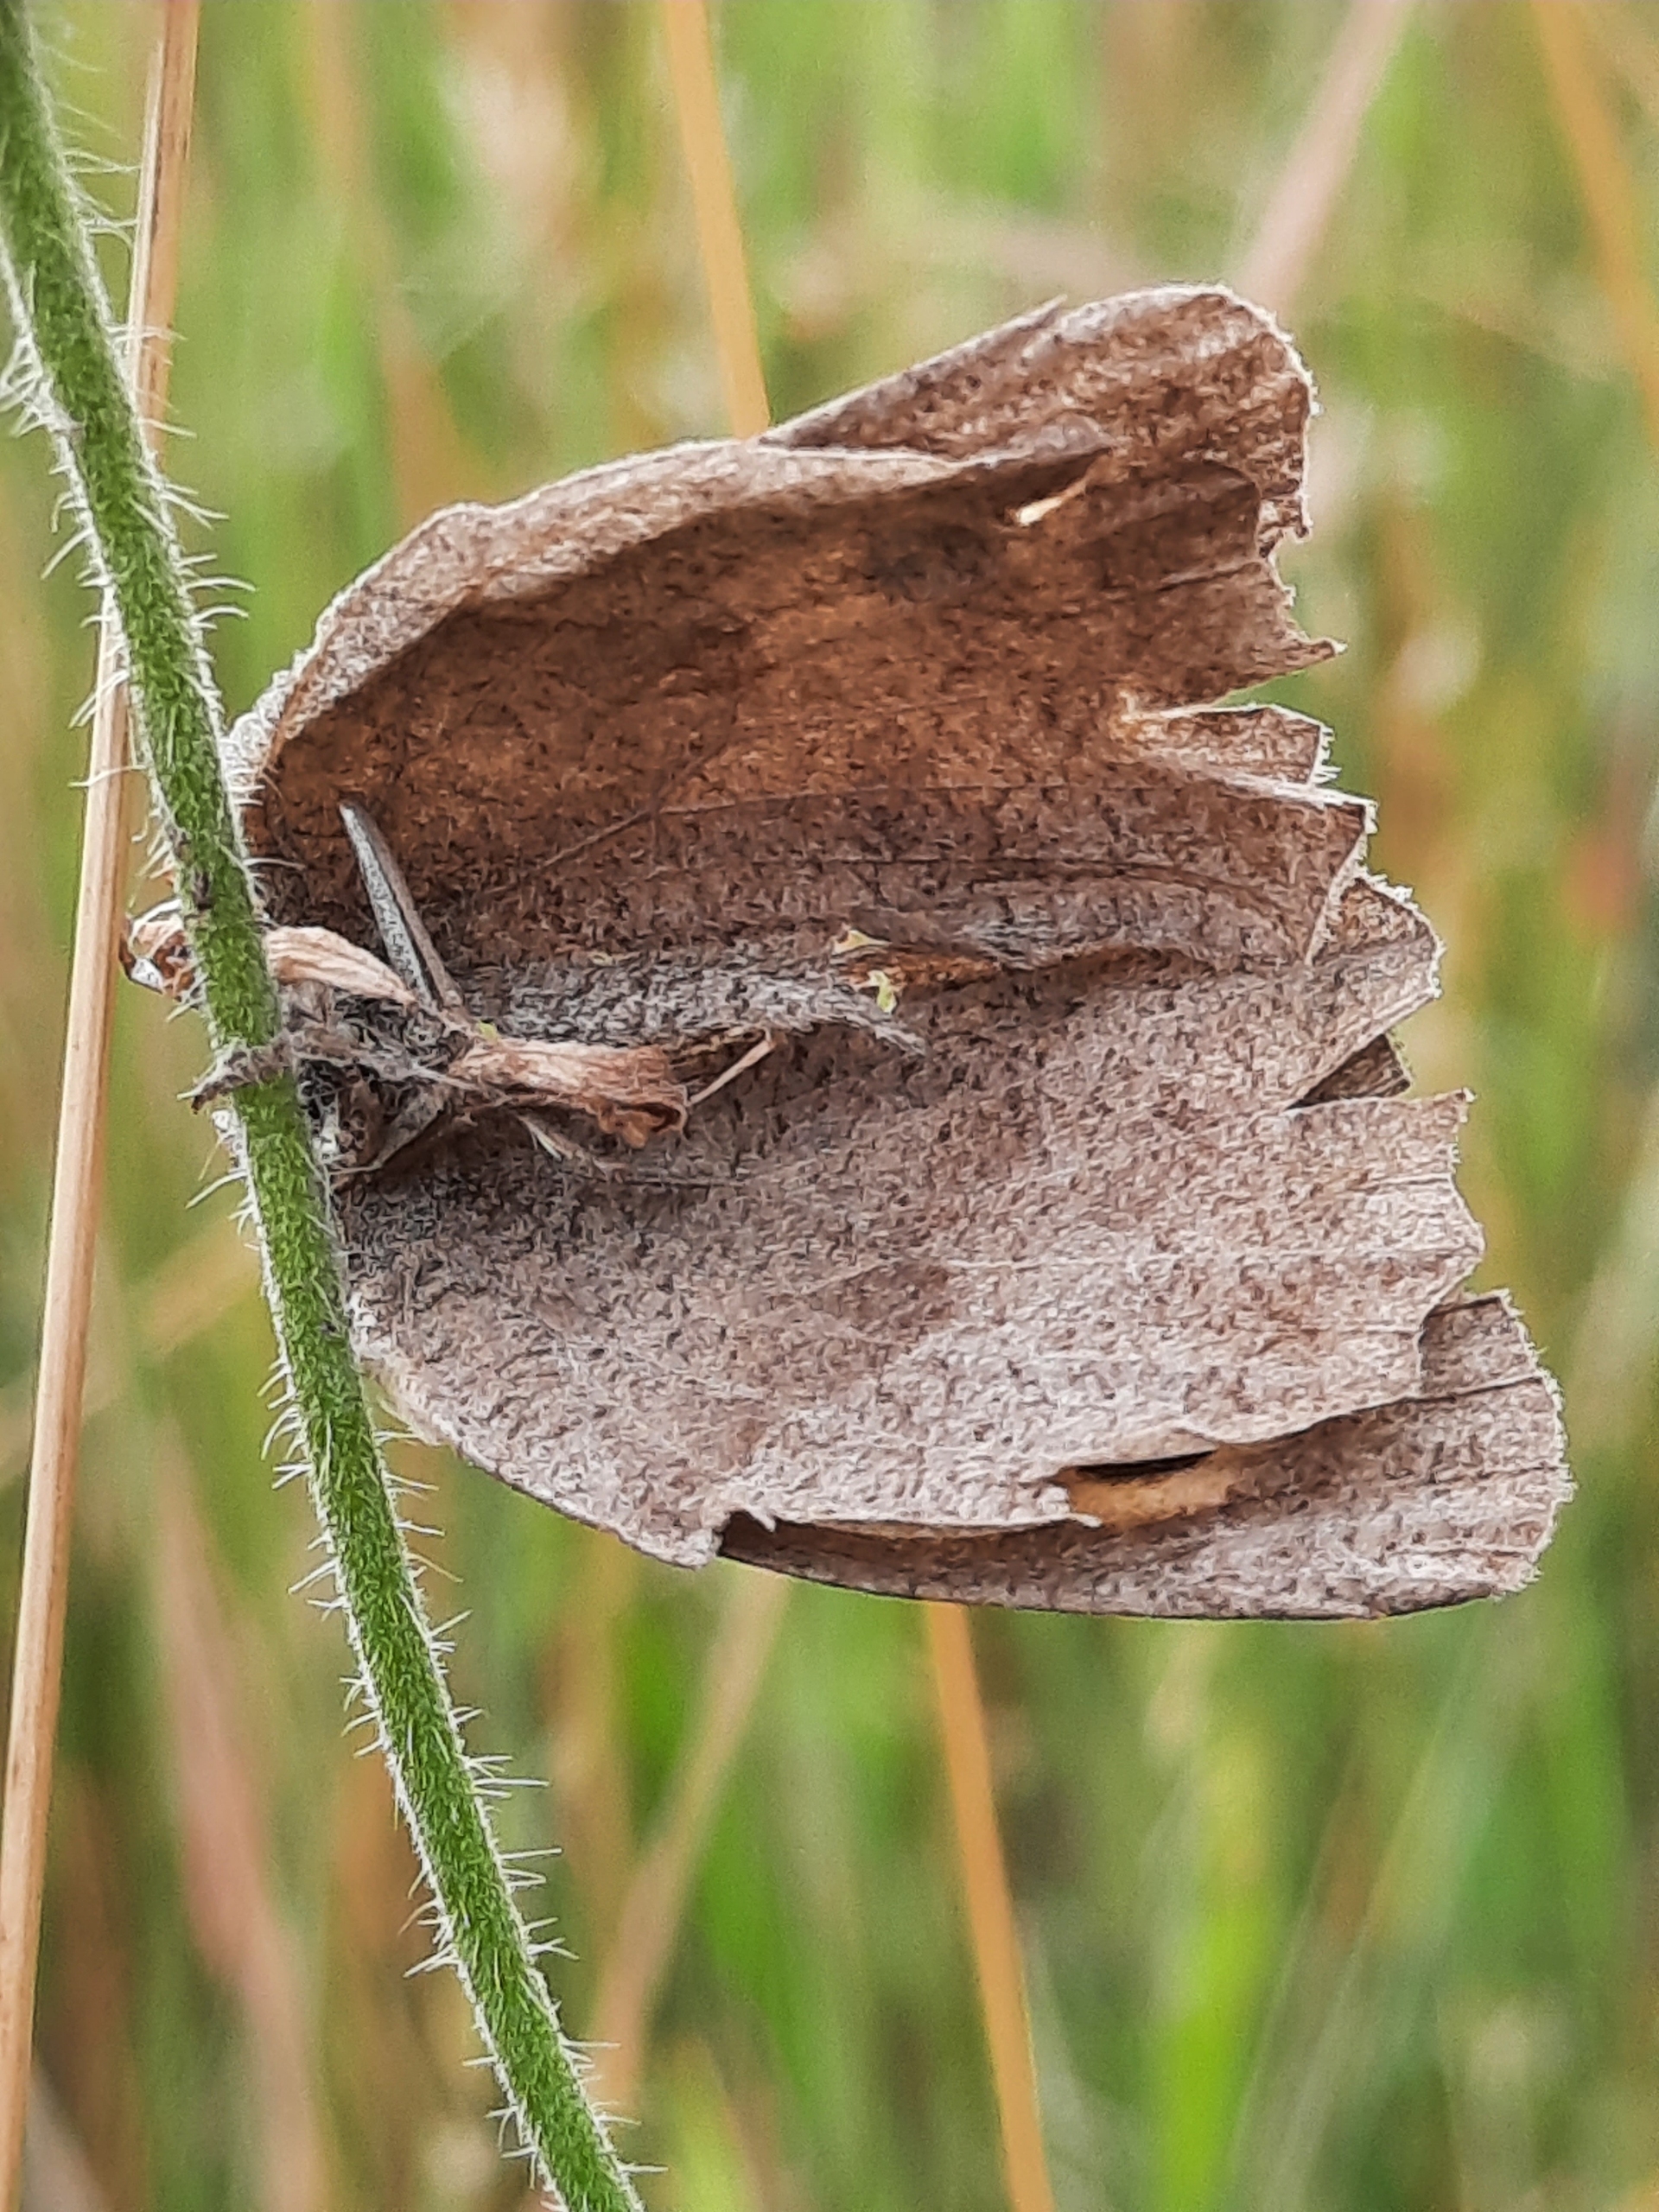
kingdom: Animalia
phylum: Arthropoda
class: Insecta
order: Lepidoptera
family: Nymphalidae
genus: Maniola
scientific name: Maniola jurtina
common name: Græsrandøje
